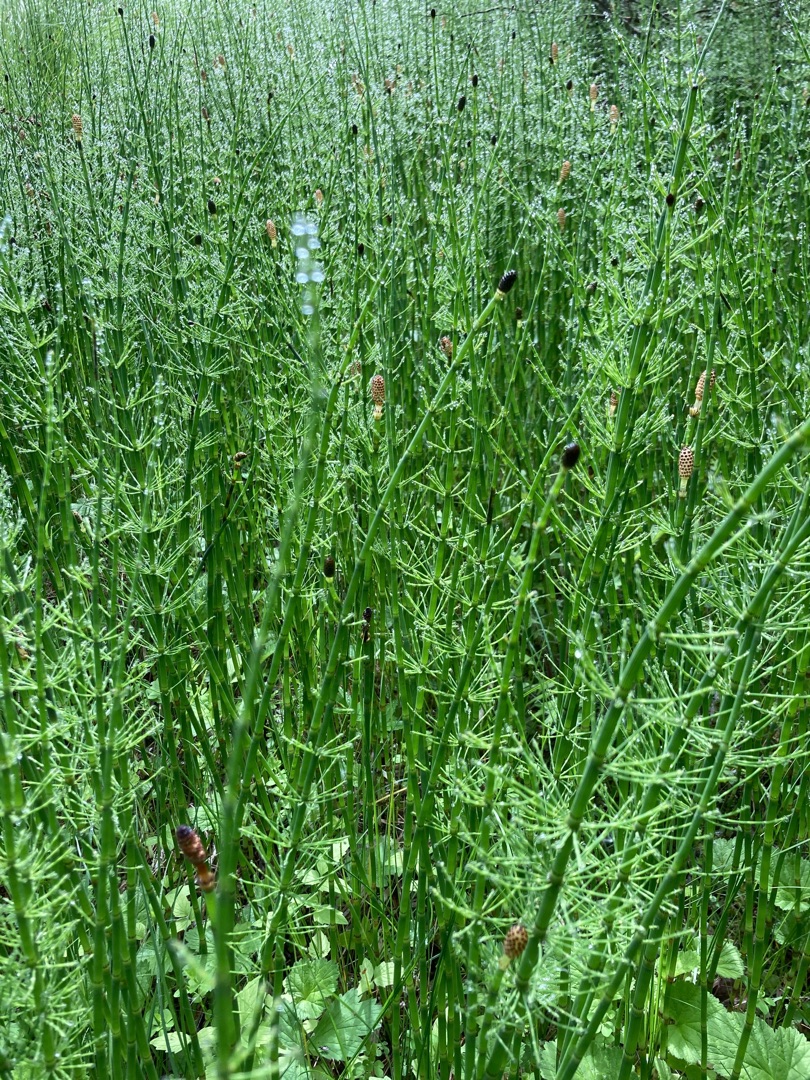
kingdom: Plantae
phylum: Tracheophyta
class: Polypodiopsida
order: Equisetales
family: Equisetaceae
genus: Equisetum
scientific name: Equisetum fluviatile
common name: Dynd-padderok
